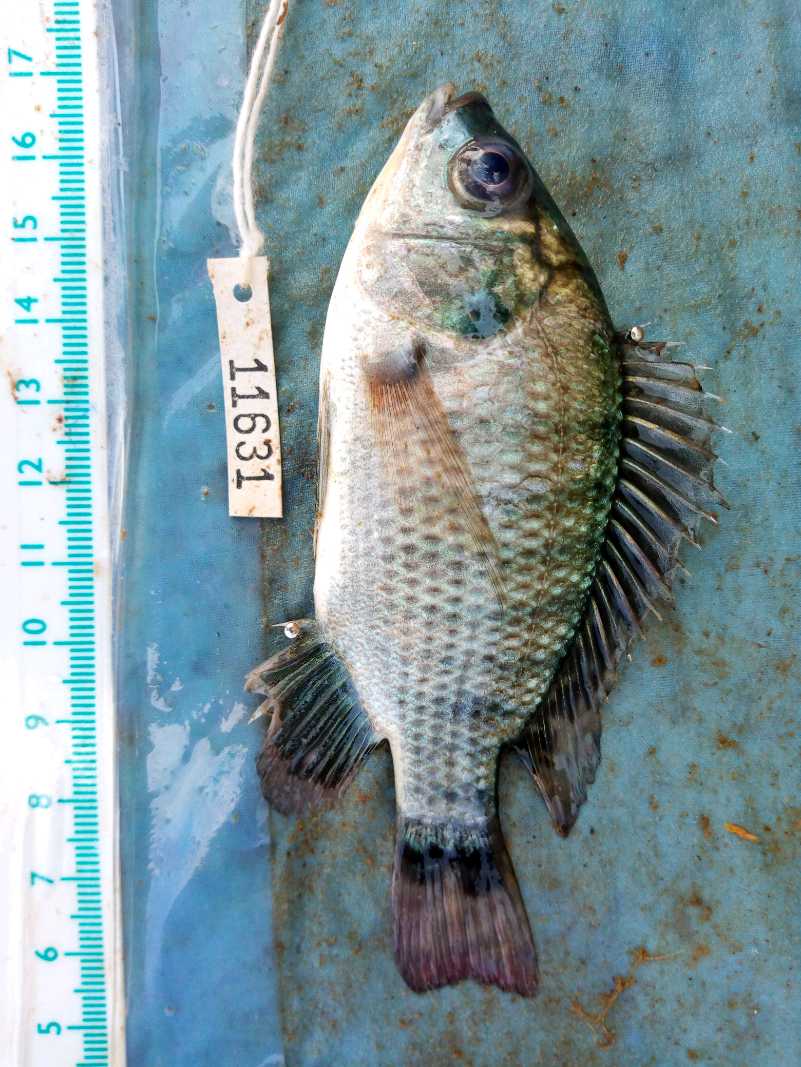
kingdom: Animalia
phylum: Chordata
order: Perciformes
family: Cichlidae
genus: Oreochromis
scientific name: Oreochromis niloticus
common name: Nile tilapia
